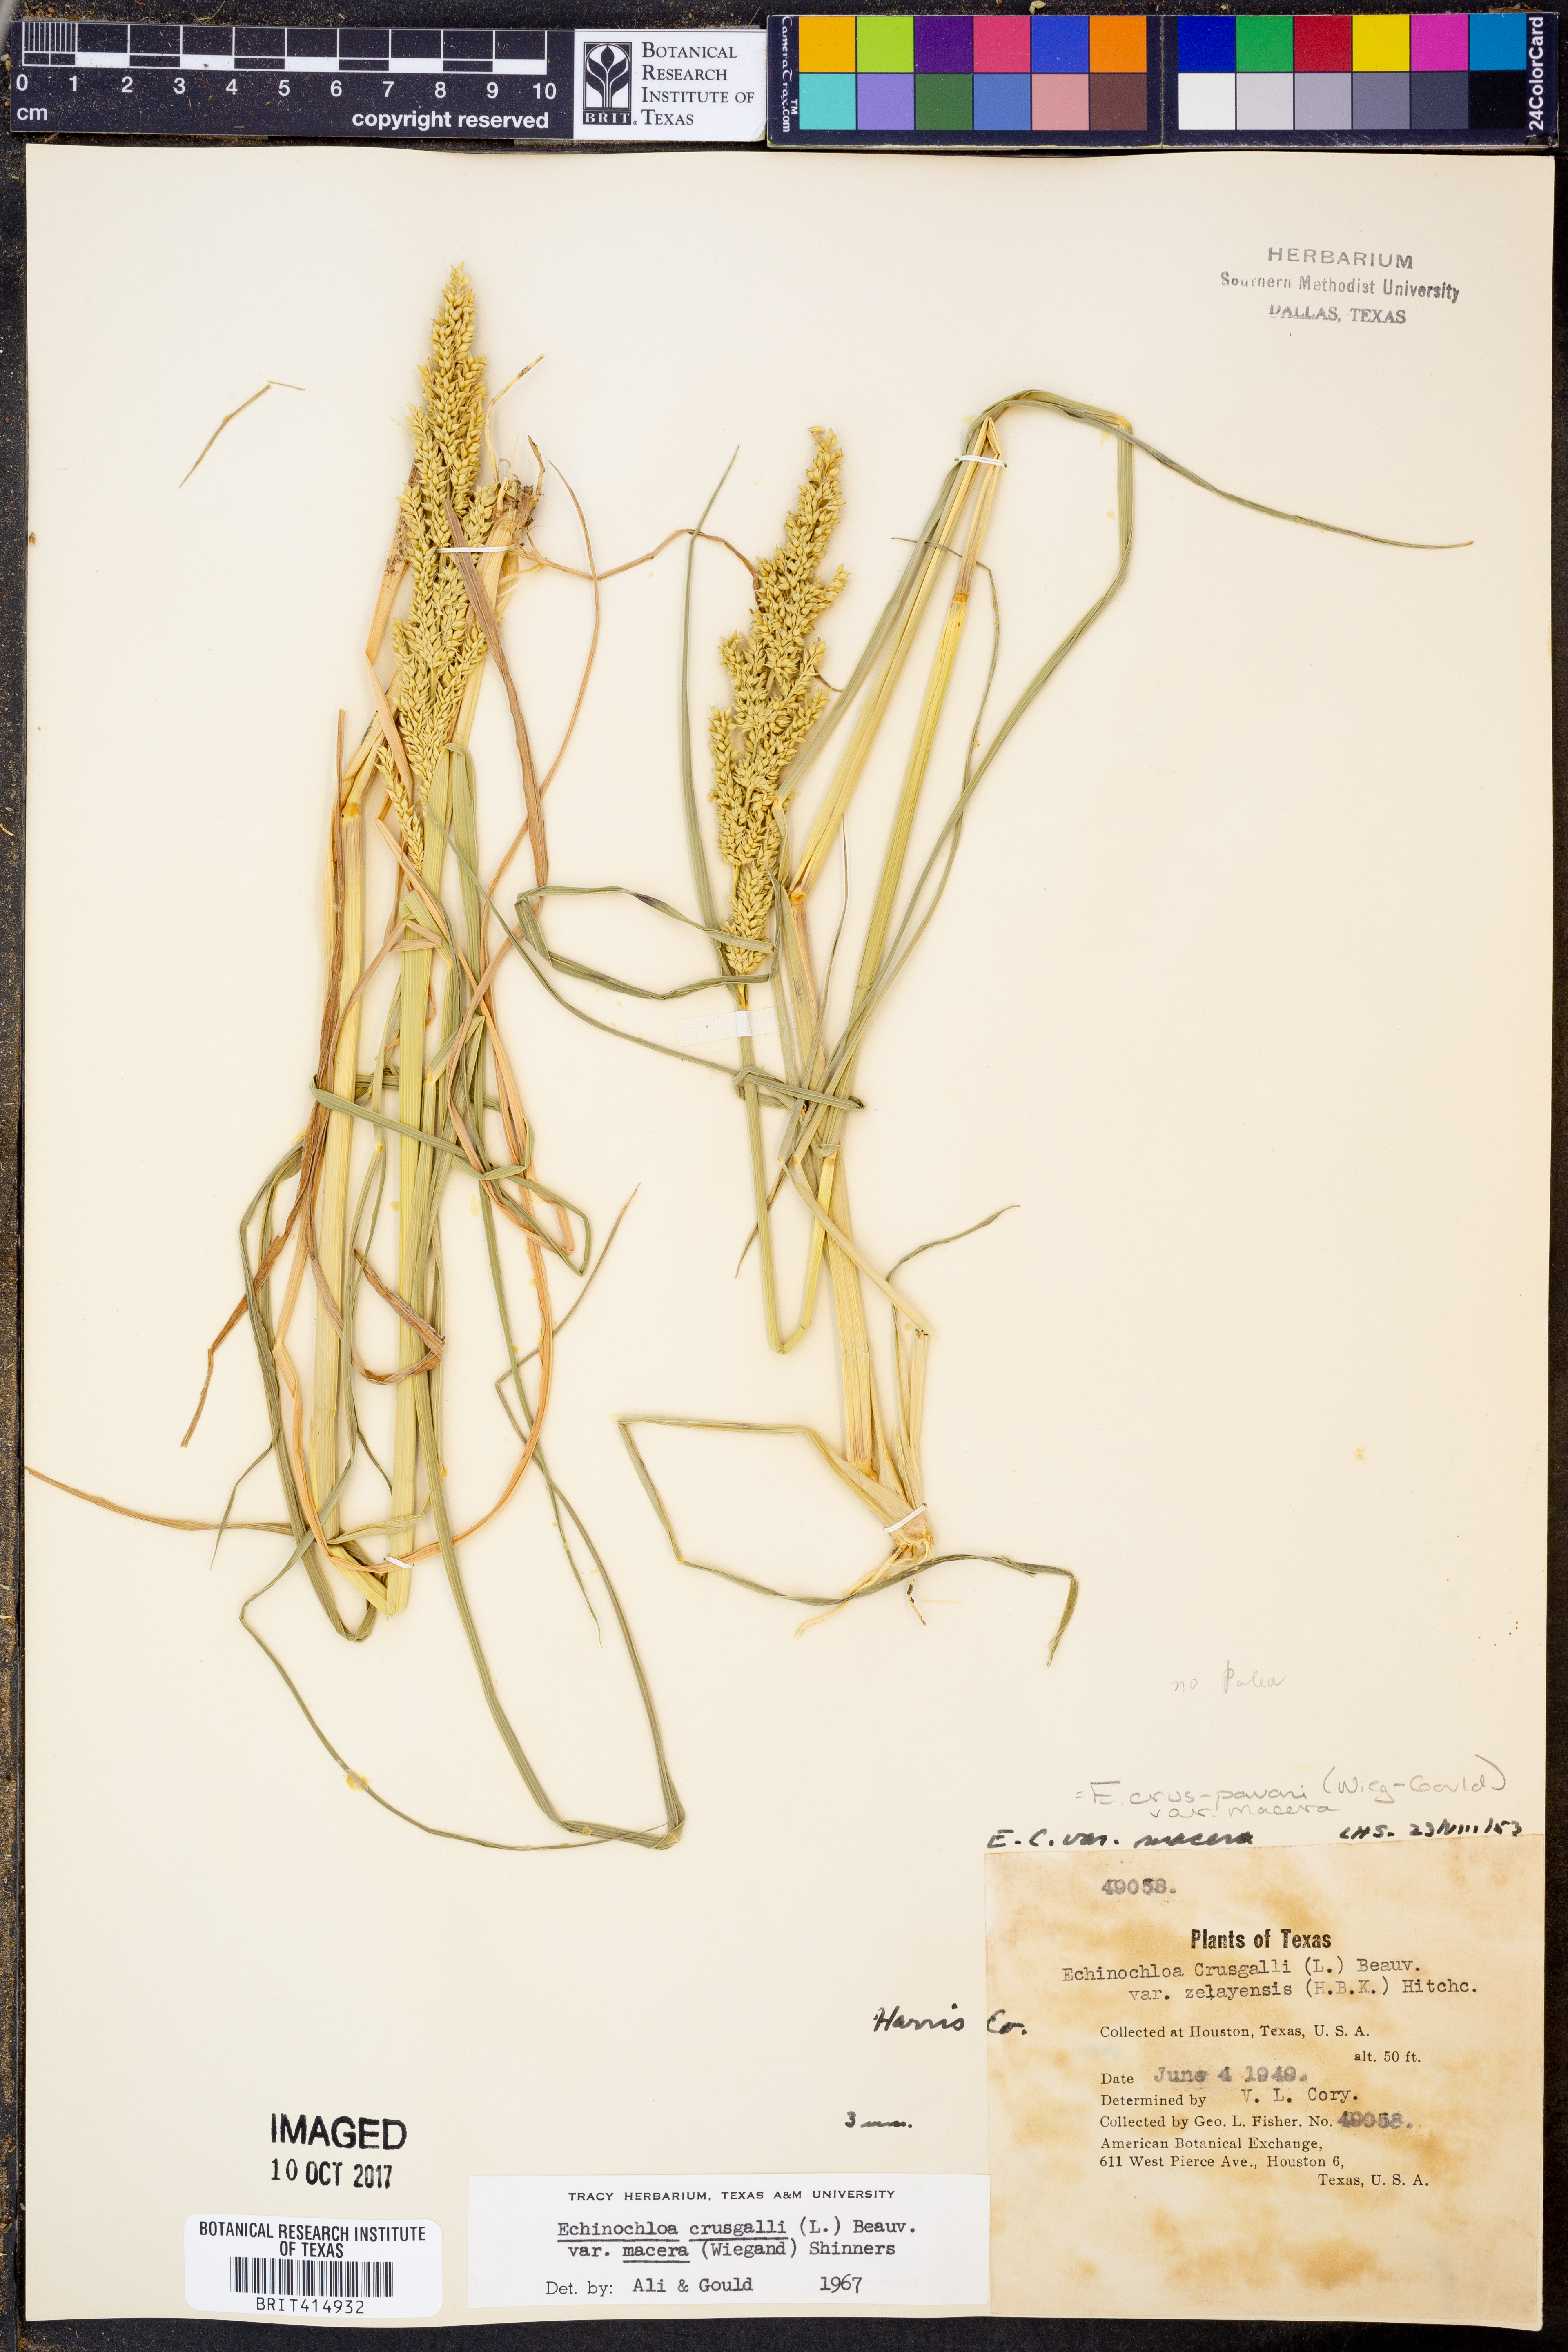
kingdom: Plantae
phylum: Tracheophyta
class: Liliopsida
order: Poales
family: Poaceae
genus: Echinochloa
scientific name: Echinochloa crus-pavonis
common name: Gulf cockspur grass
